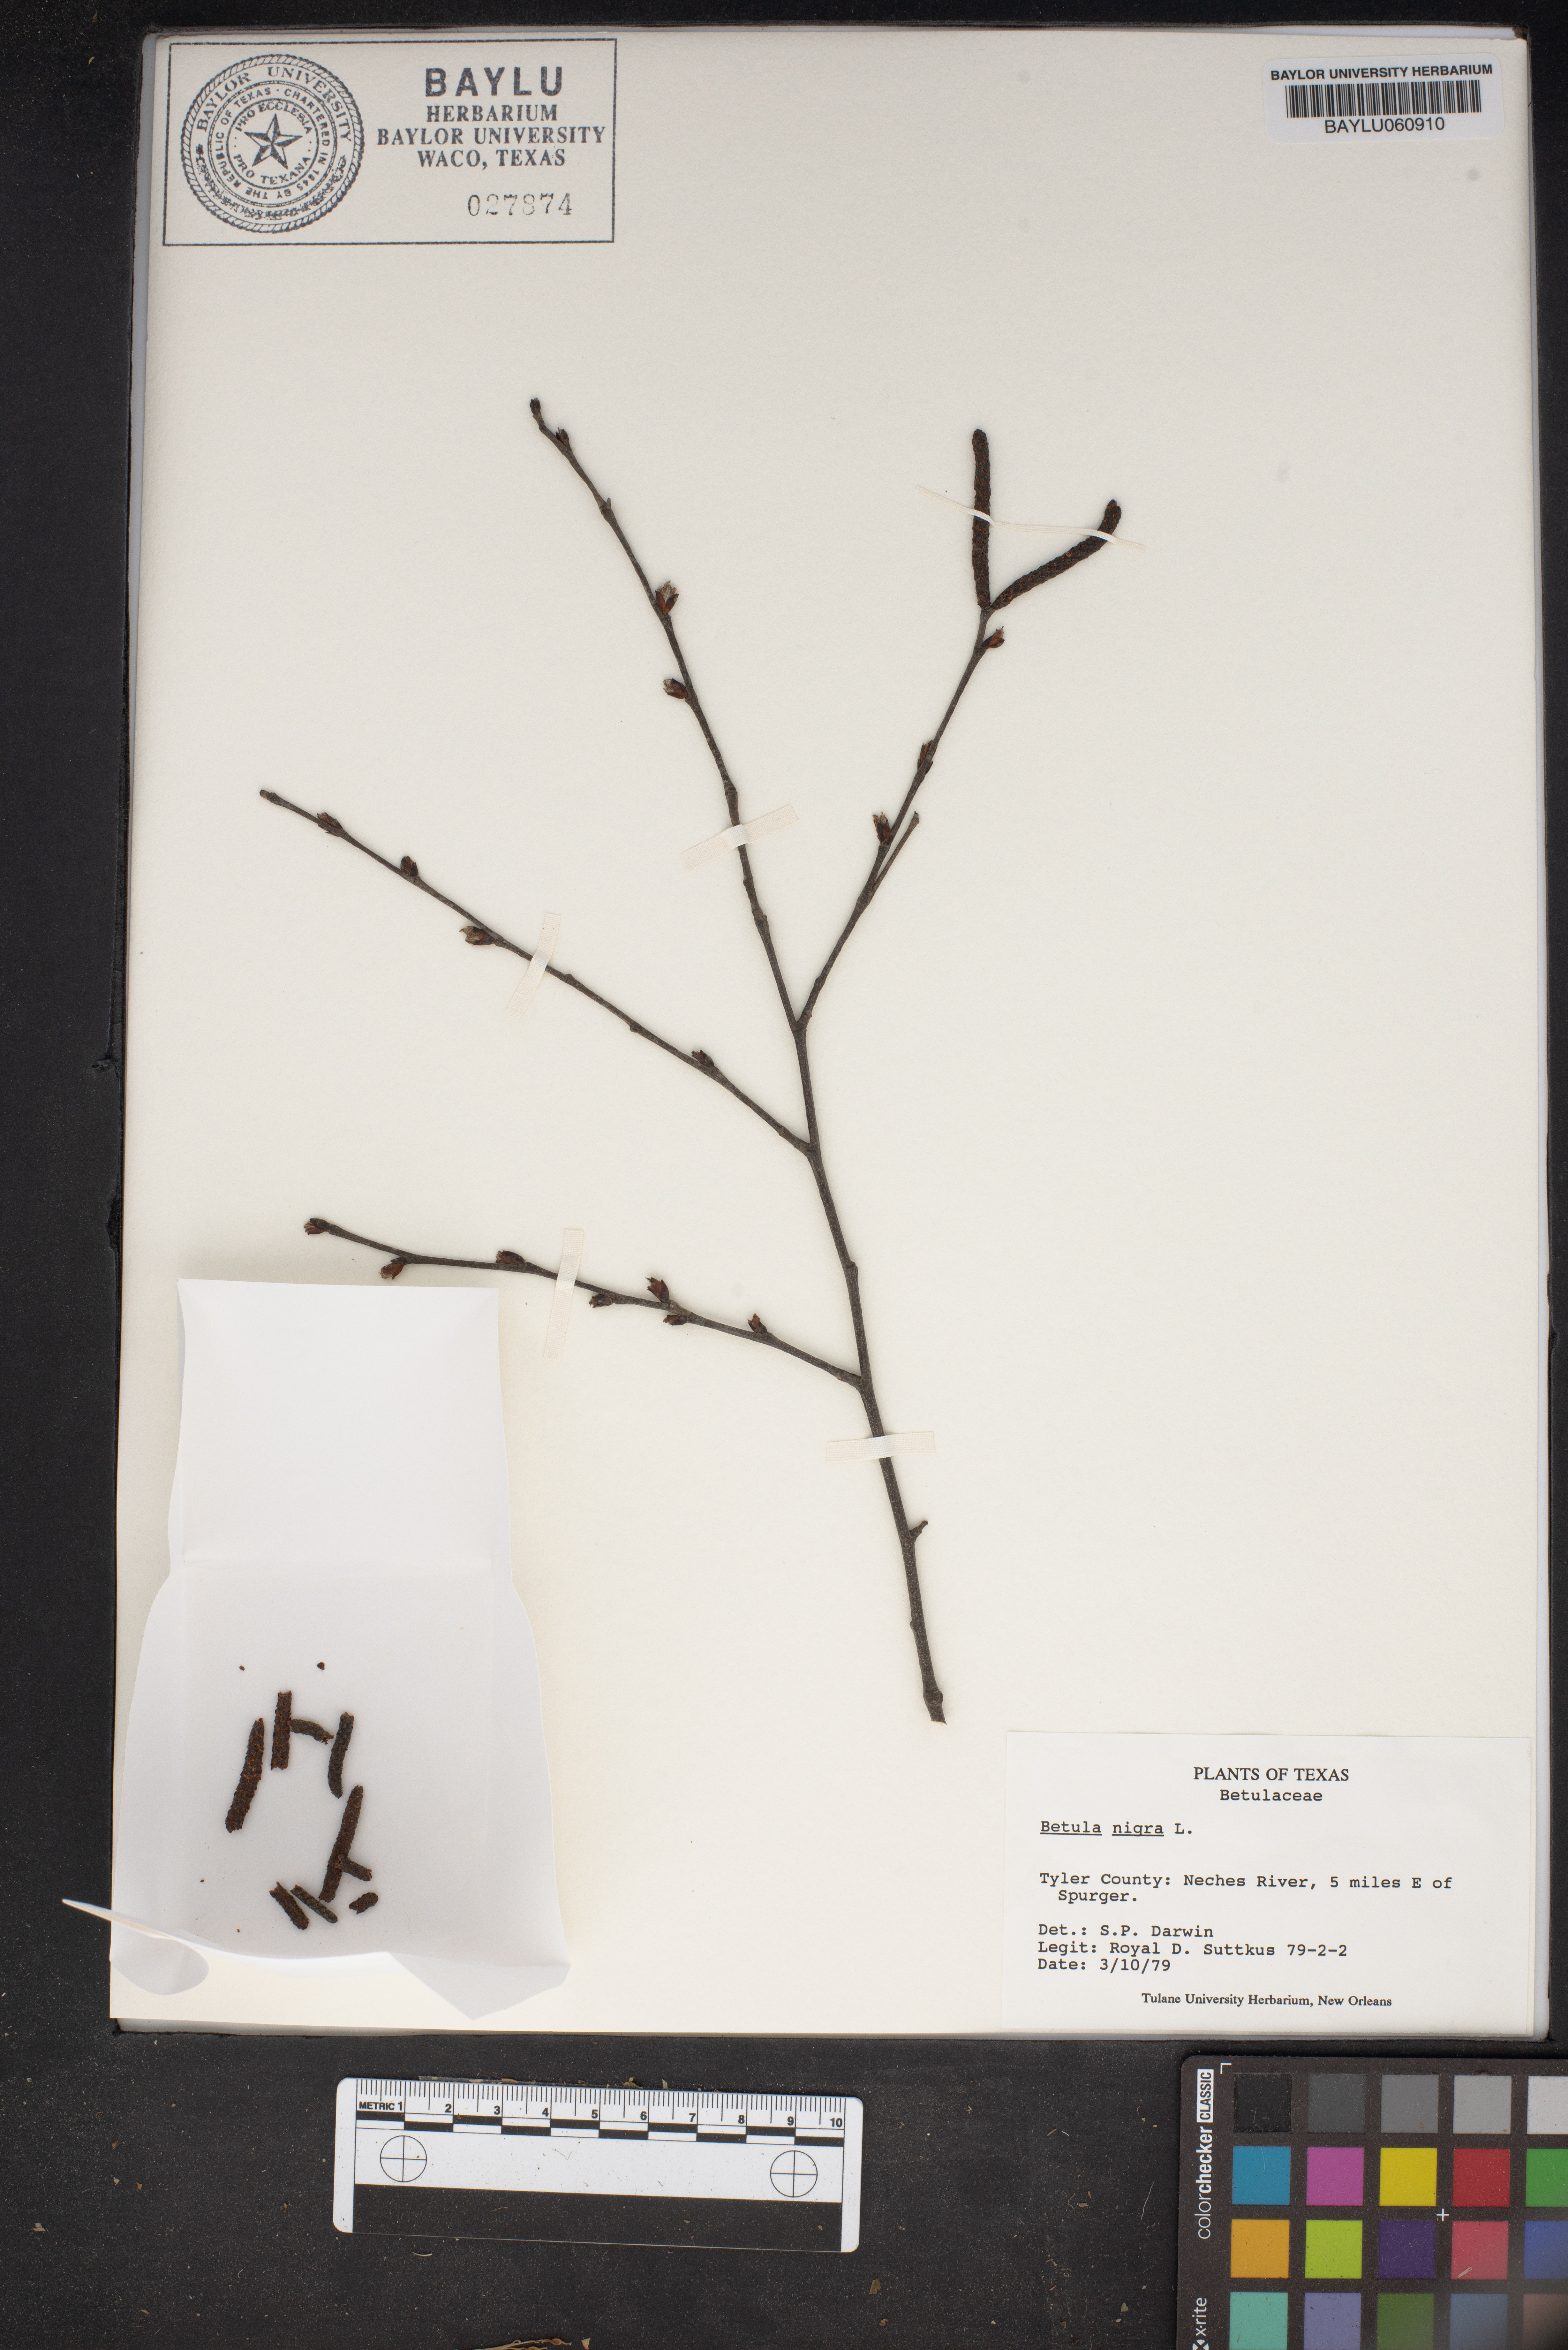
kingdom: Plantae
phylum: Tracheophyta
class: Magnoliopsida
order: Fagales
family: Betulaceae
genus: Betula
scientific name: Betula nigra
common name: Black birch
